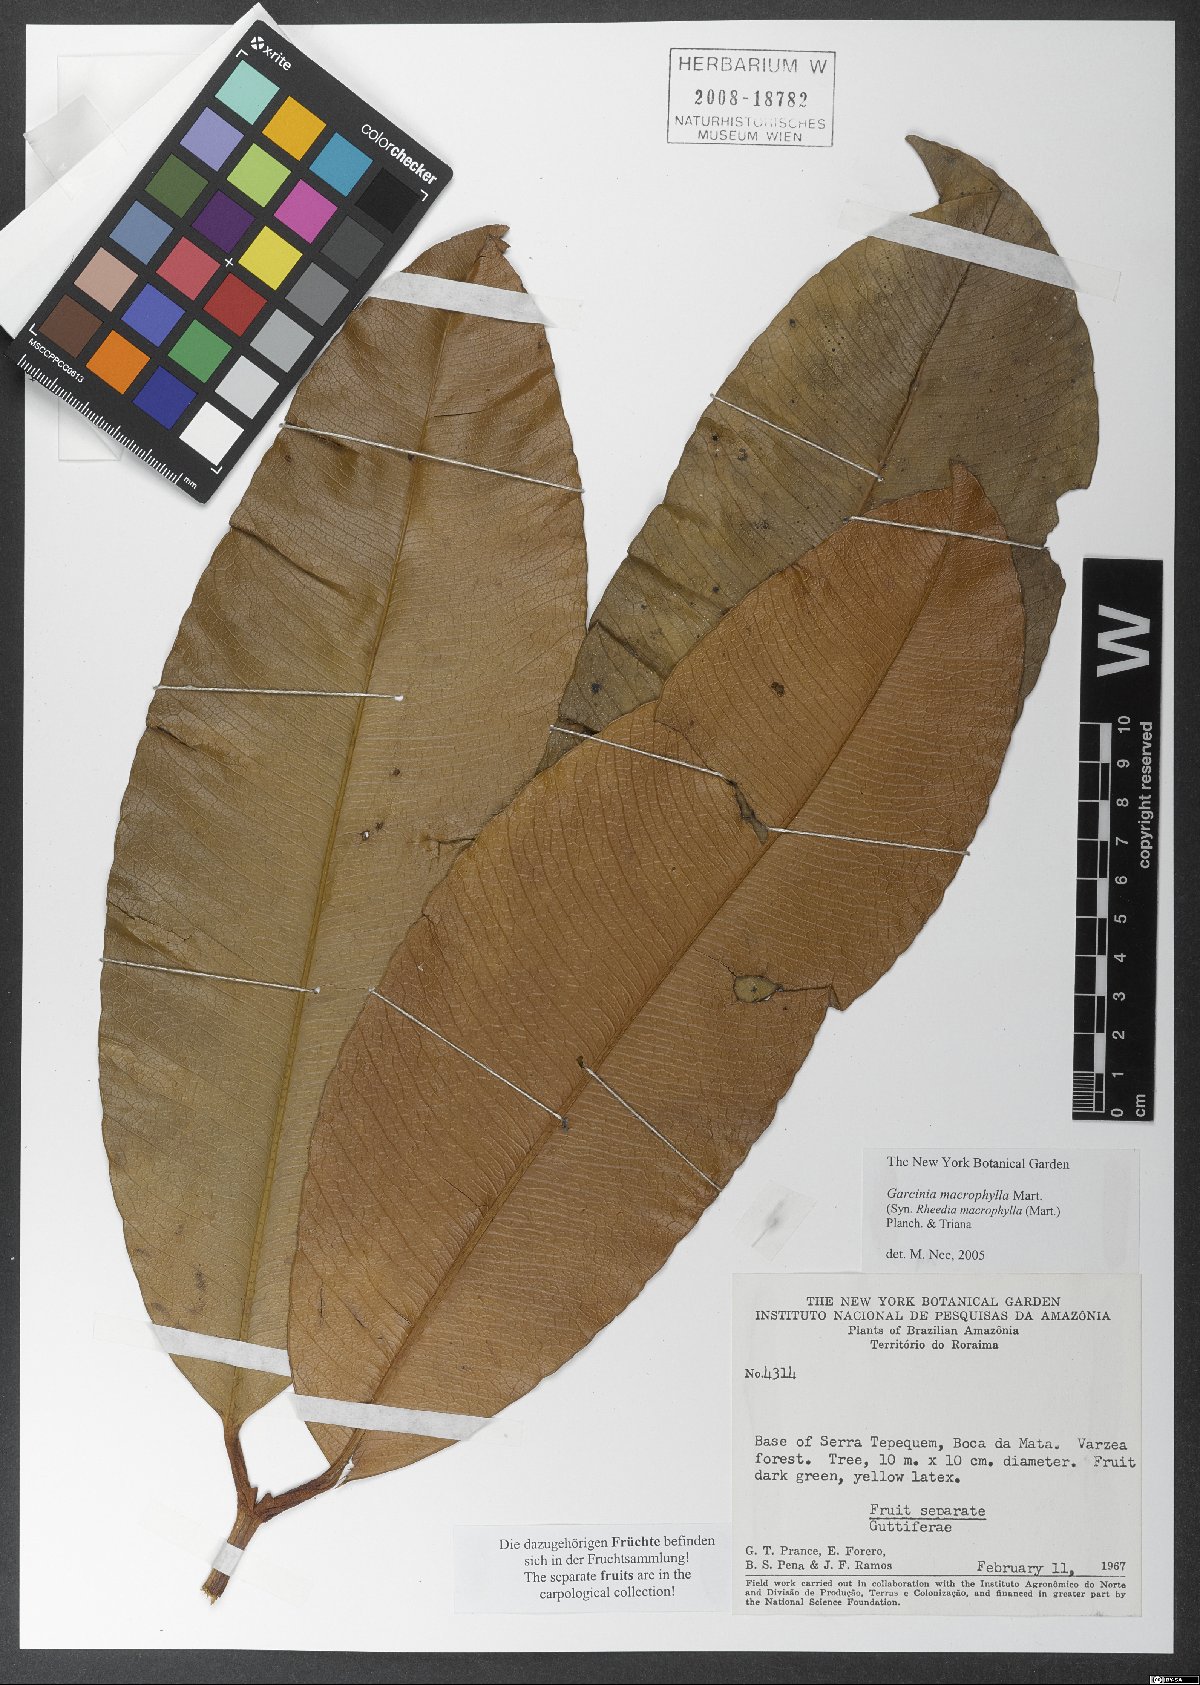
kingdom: Plantae
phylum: Tracheophyta
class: Magnoliopsida
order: Malpighiales
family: Clusiaceae
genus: Garcinia
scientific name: Garcinia macrophylla
